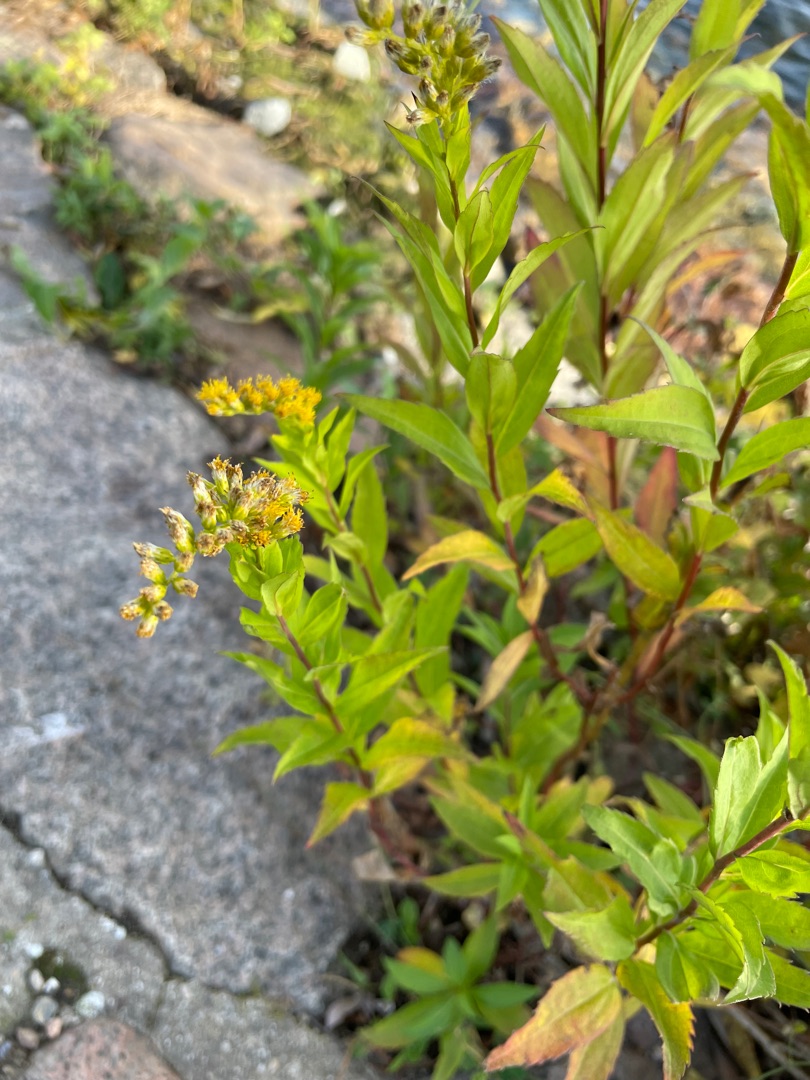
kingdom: Plantae
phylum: Tracheophyta
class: Magnoliopsida
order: Asterales
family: Asteraceae
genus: Solidago
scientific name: Solidago gigantea
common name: Sildig gyldenris
